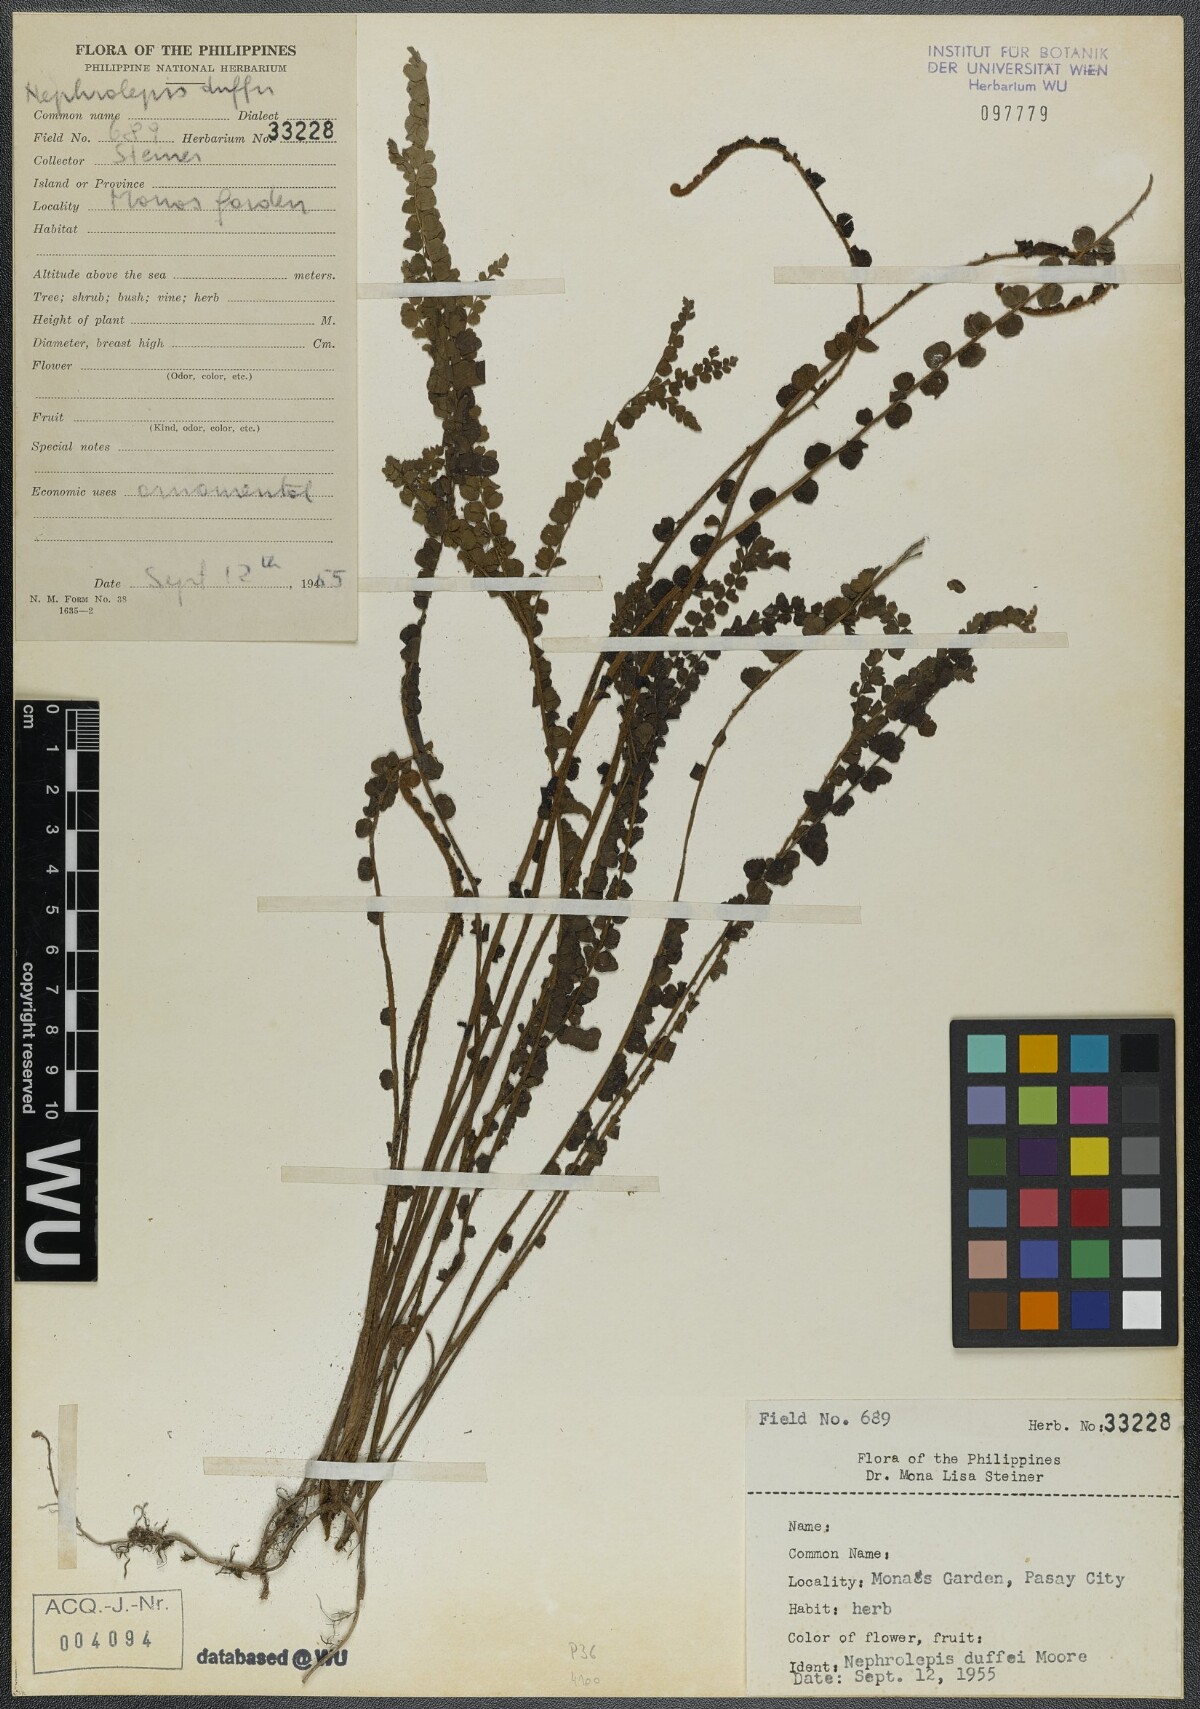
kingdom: Plantae
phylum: Tracheophyta
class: Polypodiopsida
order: Polypodiales
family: Nephrolepidaceae
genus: Nephrolepis
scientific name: Nephrolepis hirsutula
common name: Asian sword fern
